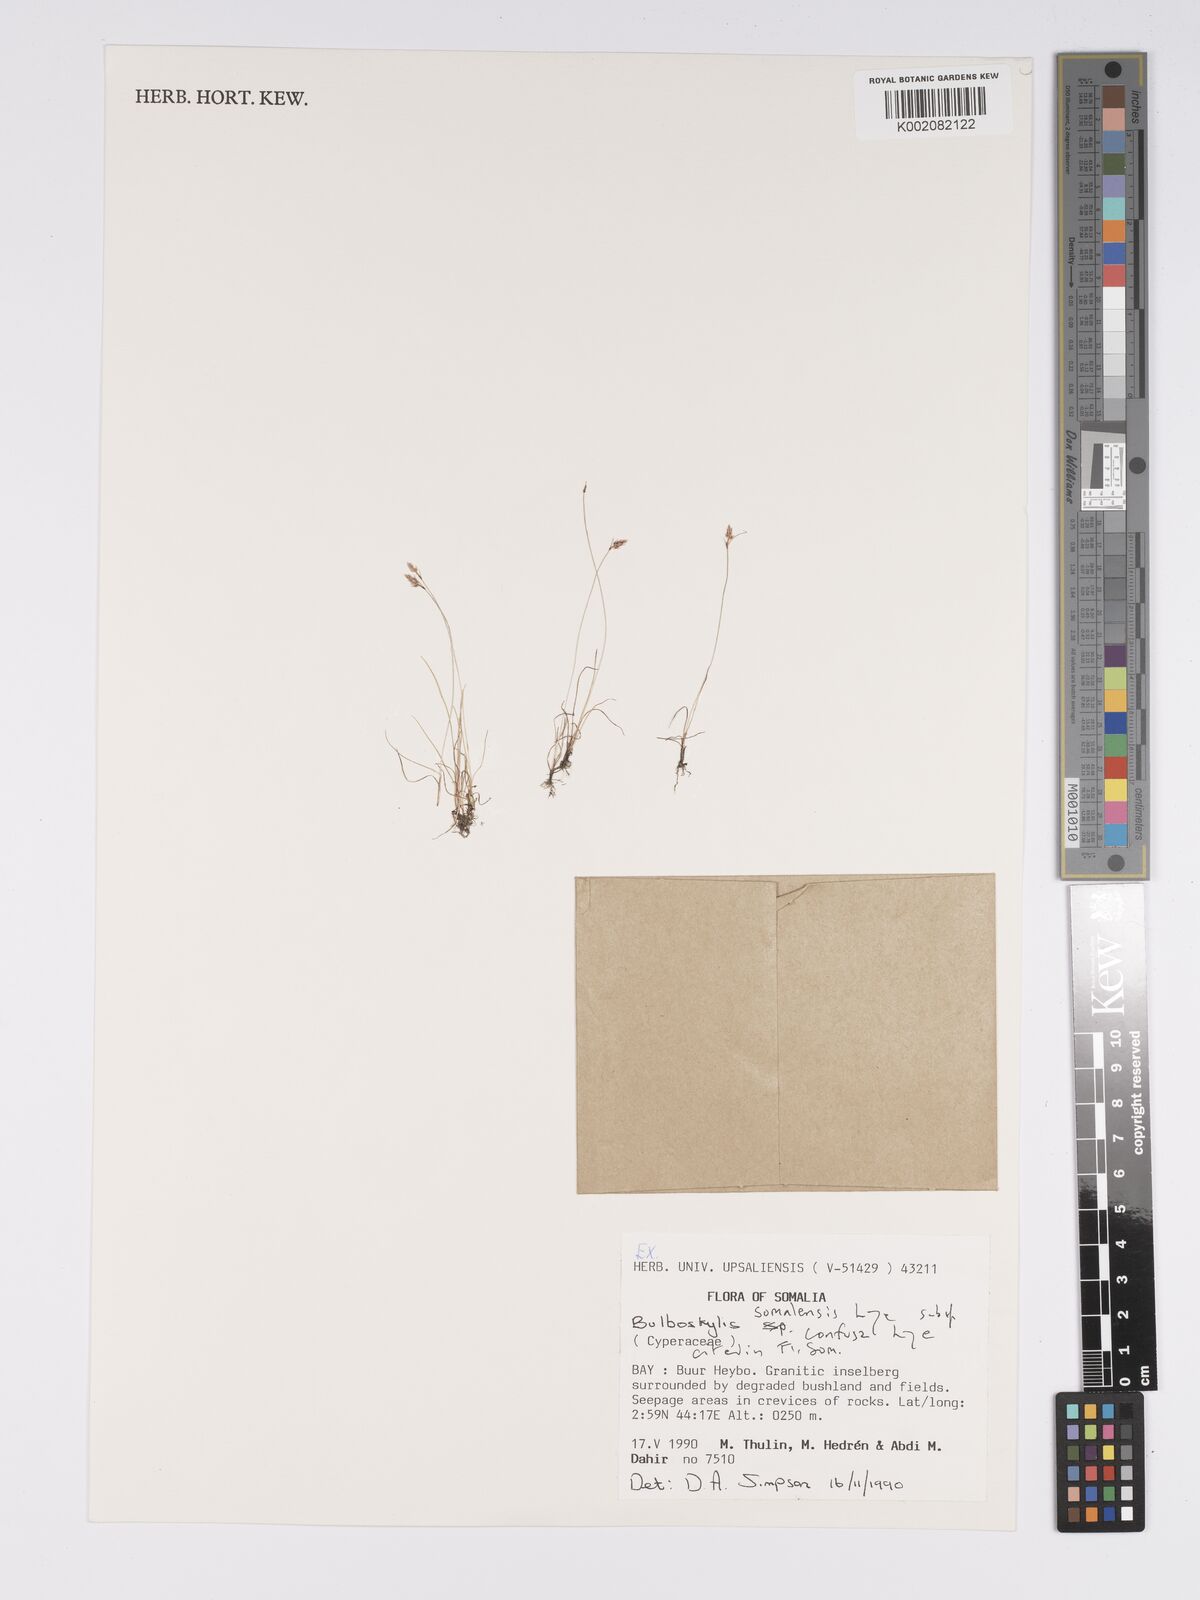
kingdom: Plantae
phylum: Tracheophyta
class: Liliopsida
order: Poales
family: Cyperaceae
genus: Bulbostylis
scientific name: Bulbostylis somaliensis
